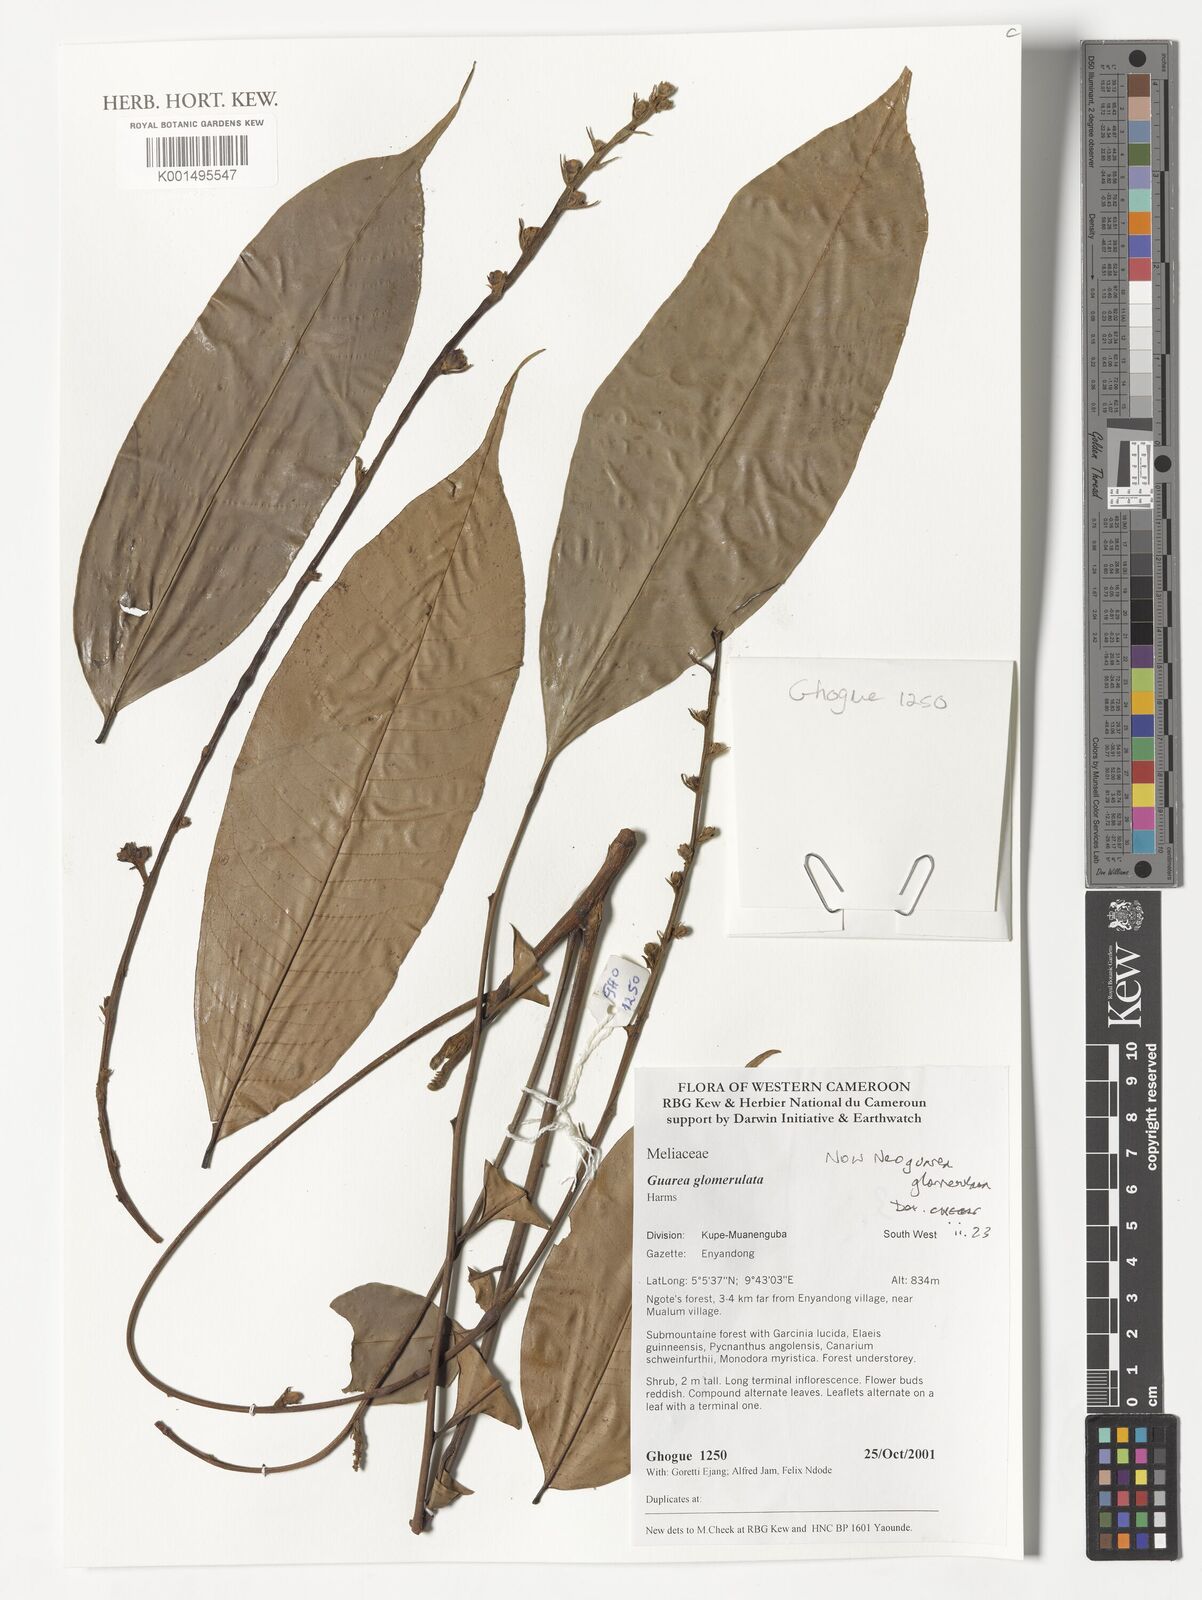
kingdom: Plantae
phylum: Tracheophyta
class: Magnoliopsida
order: Sapindales
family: Meliaceae
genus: Neoguarea
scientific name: Neoguarea glomerulata
